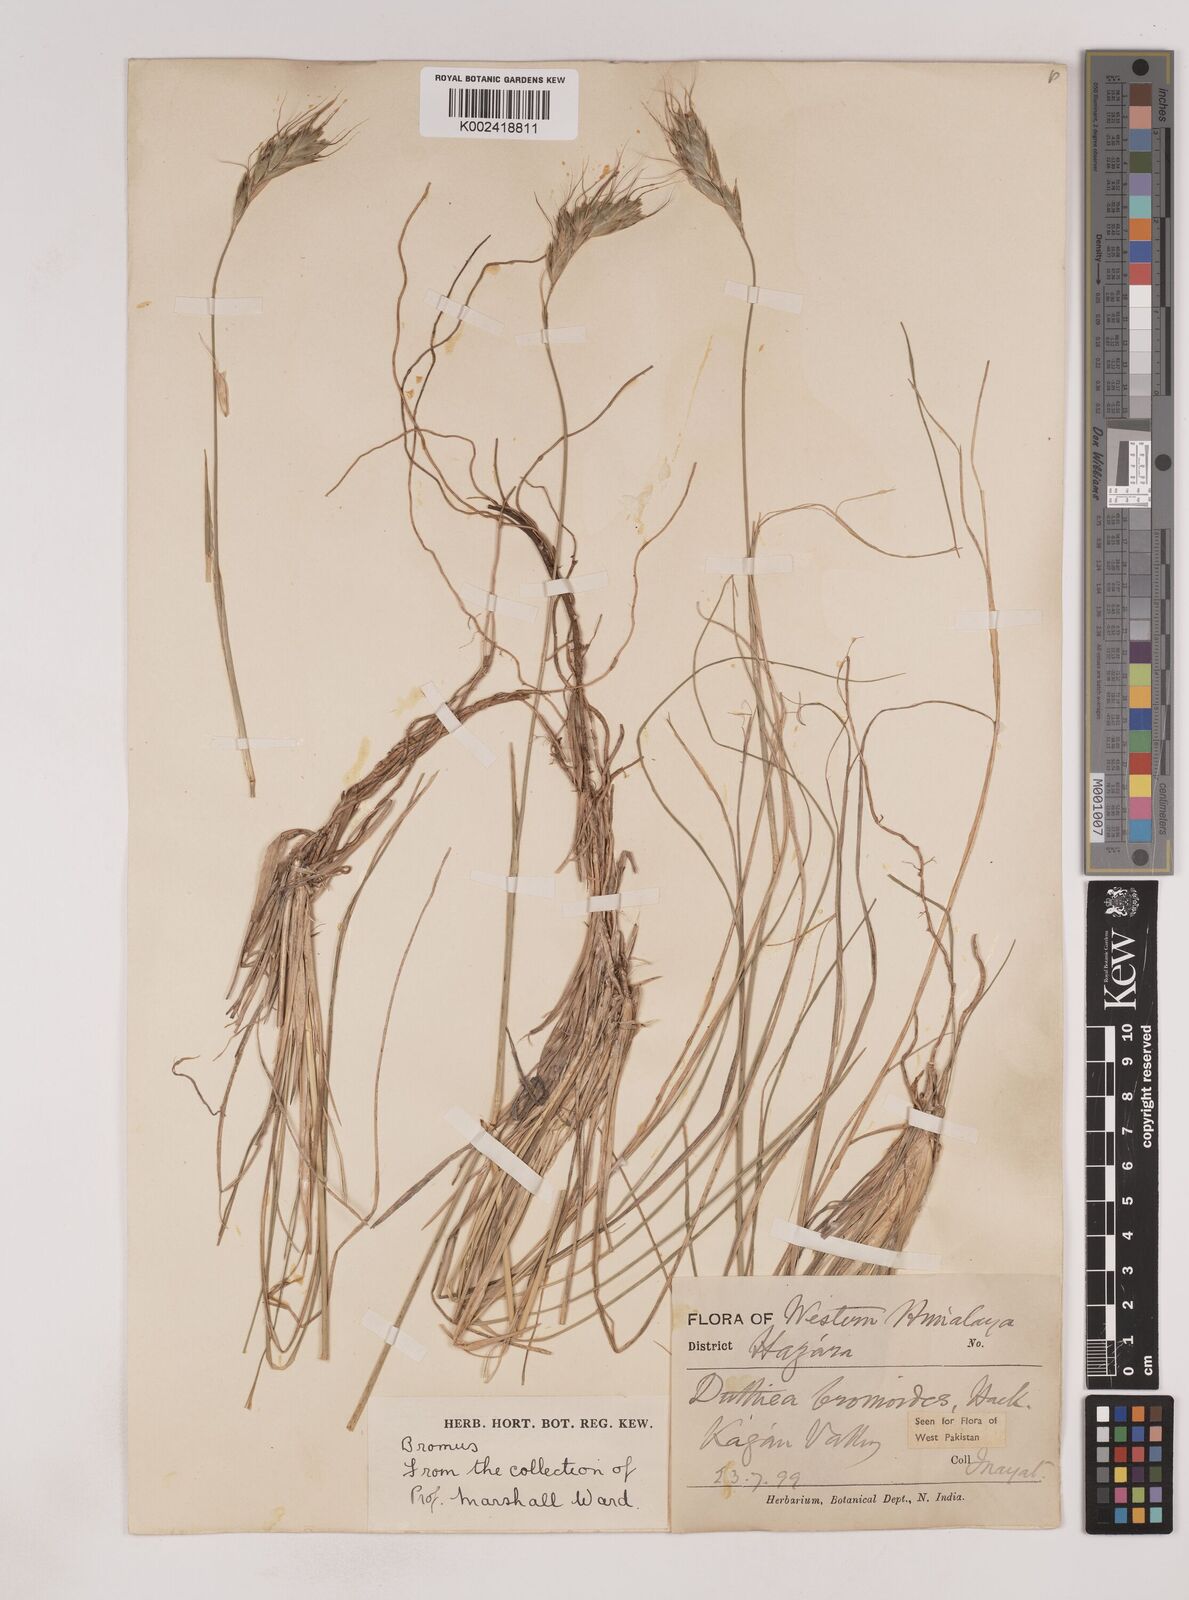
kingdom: Plantae
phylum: Tracheophyta
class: Liliopsida
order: Poales
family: Poaceae
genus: Duthiea
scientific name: Duthiea bromoides
